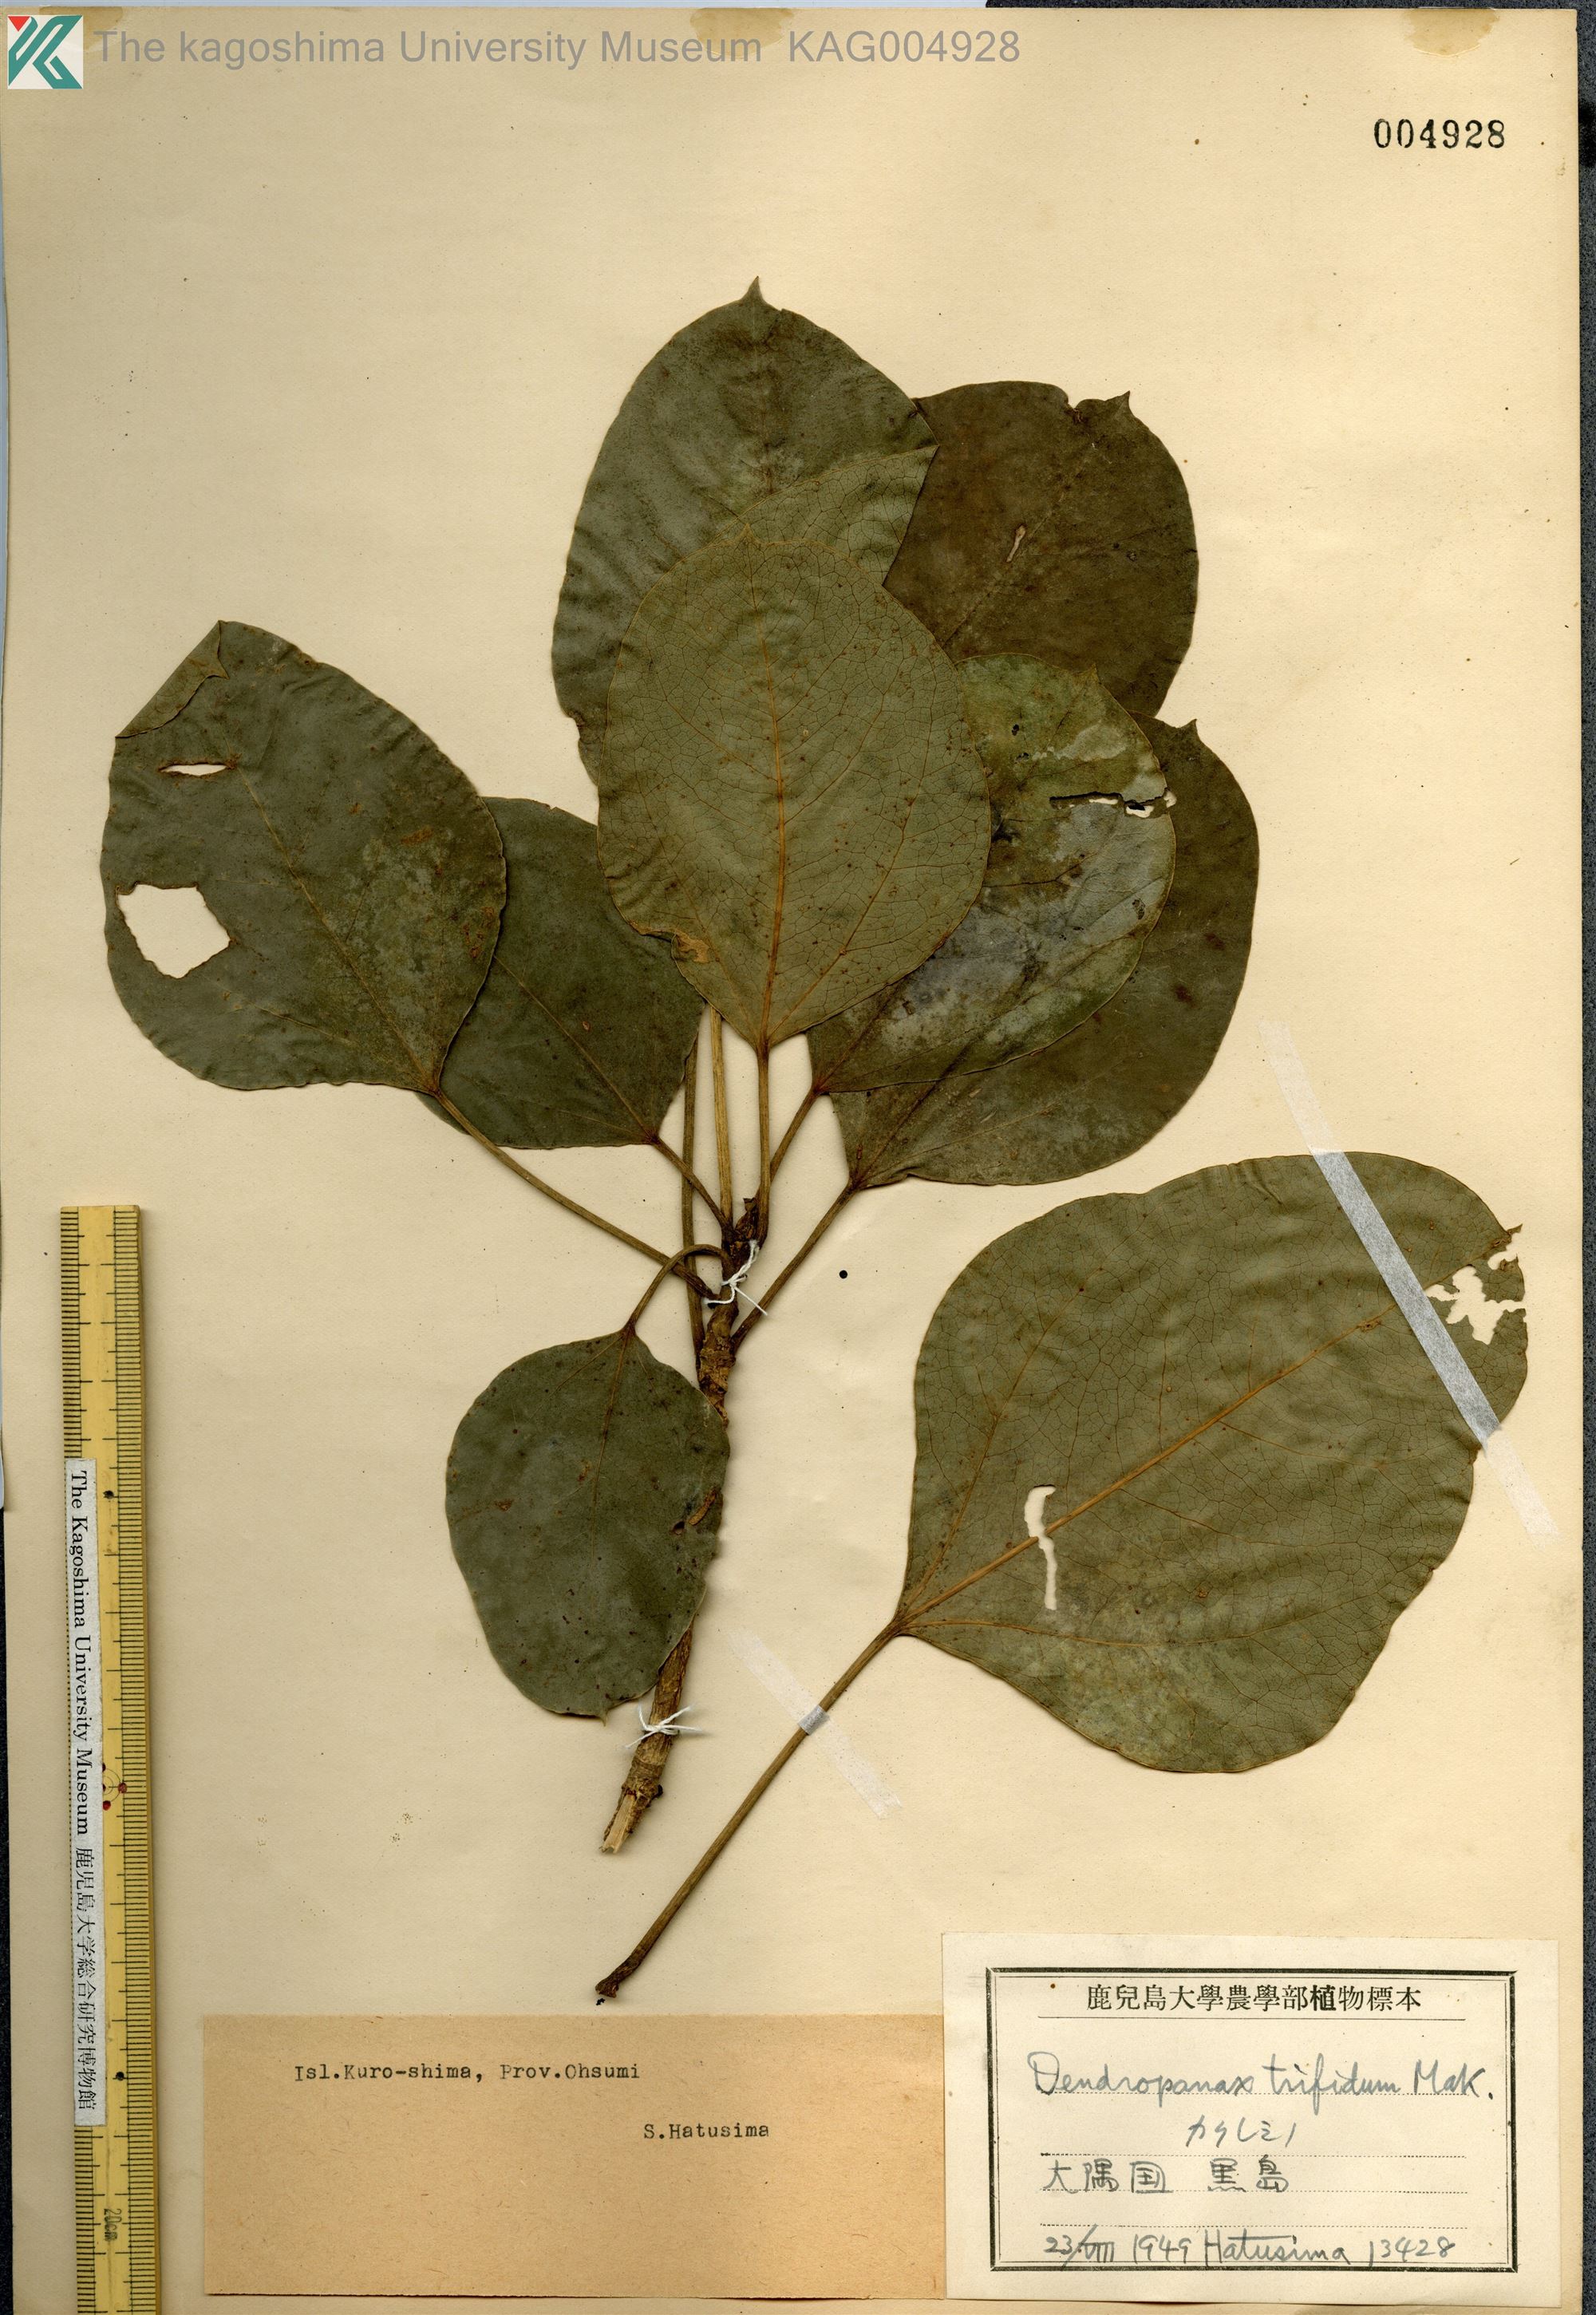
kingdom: Plantae
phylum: Tracheophyta
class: Magnoliopsida
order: Apiales
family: Araliaceae
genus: Dendropanax
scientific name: Dendropanax trifidus
